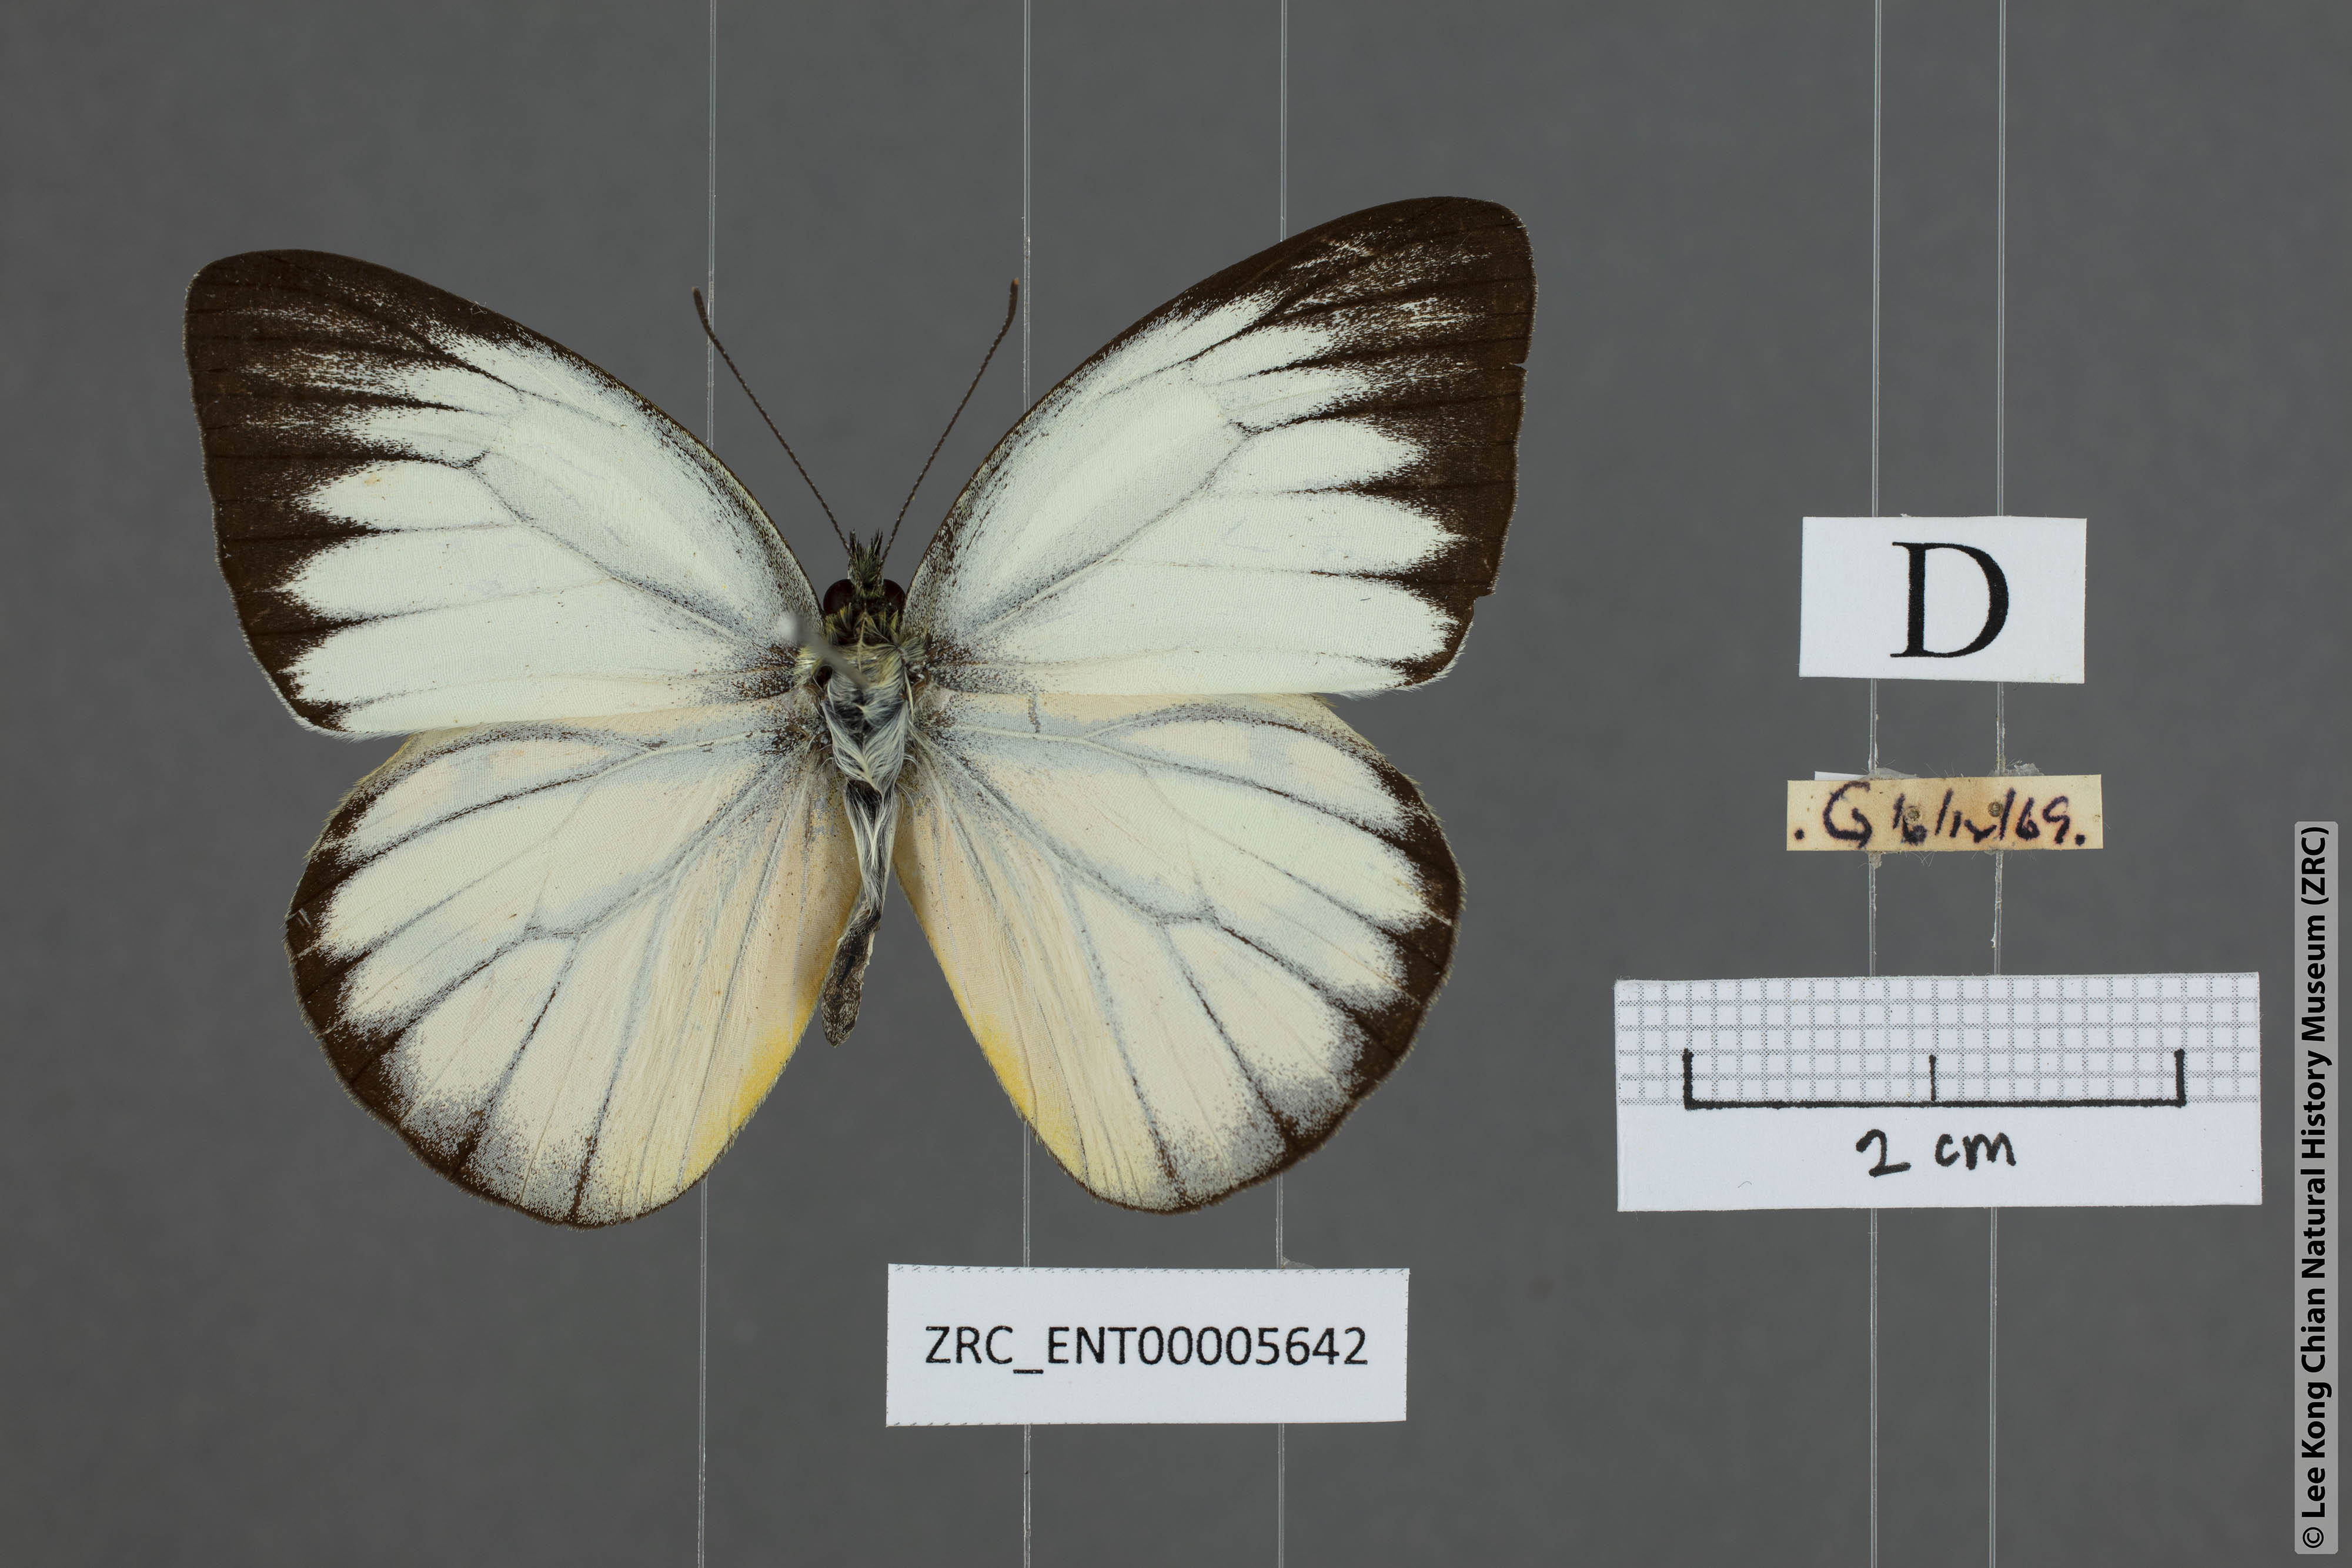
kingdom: Animalia
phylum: Arthropoda
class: Insecta
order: Lepidoptera
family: Pieridae
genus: Cepora
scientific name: Cepora nadina
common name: Lesser gull
